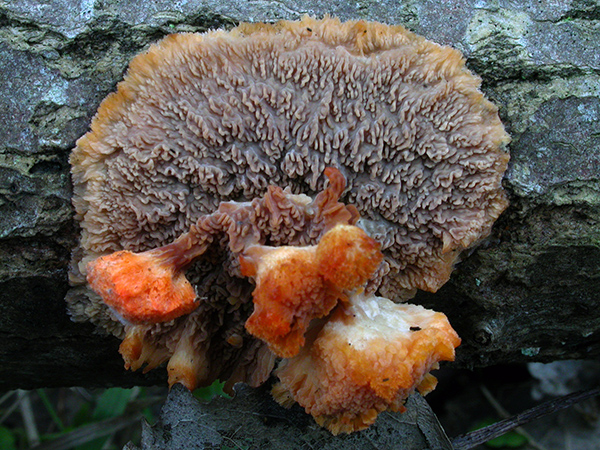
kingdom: Fungi
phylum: Basidiomycota
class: Agaricomycetes
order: Polyporales
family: Meruliaceae
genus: Phlebia
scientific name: Phlebia radiata
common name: stråle-åresvamp
